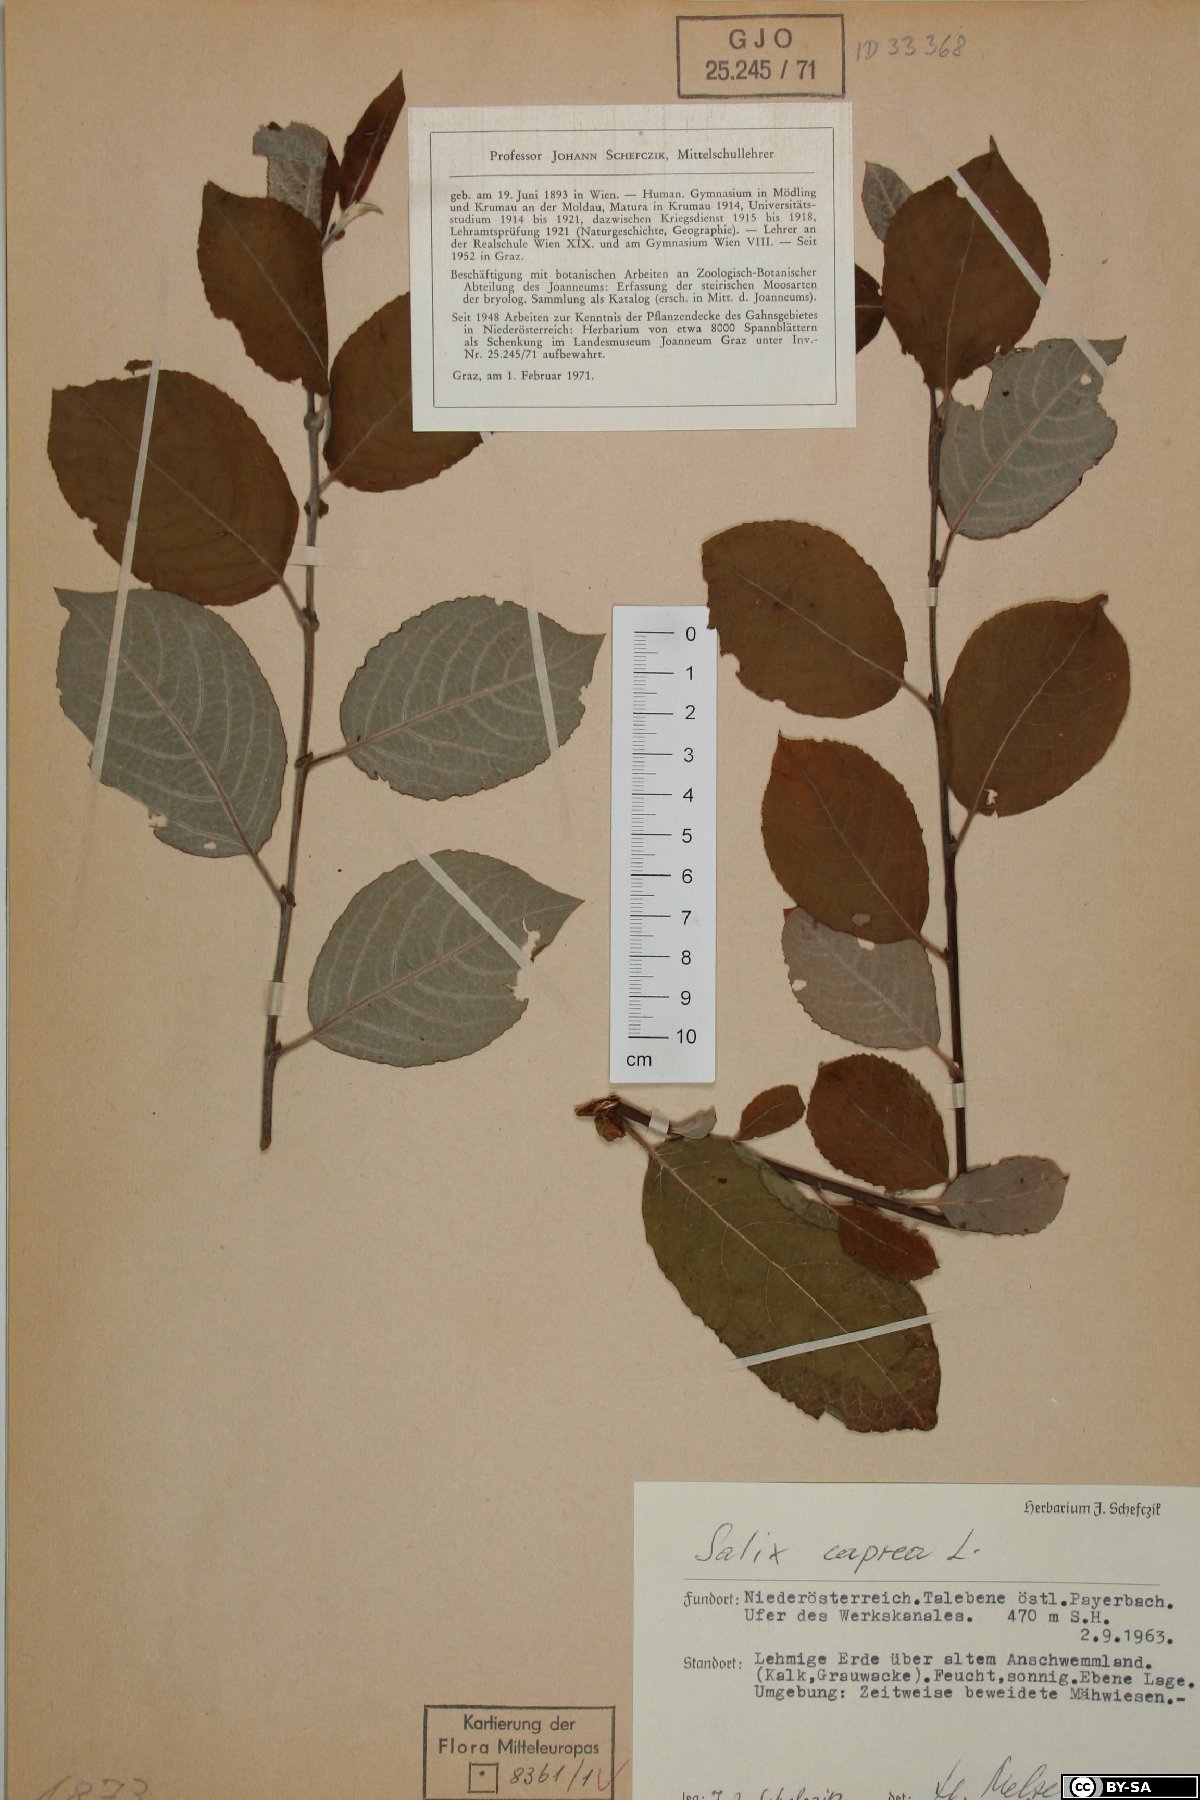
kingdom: Plantae
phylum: Tracheophyta
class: Magnoliopsida
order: Malpighiales
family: Salicaceae
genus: Salix
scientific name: Salix caprea
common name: Goat willow
